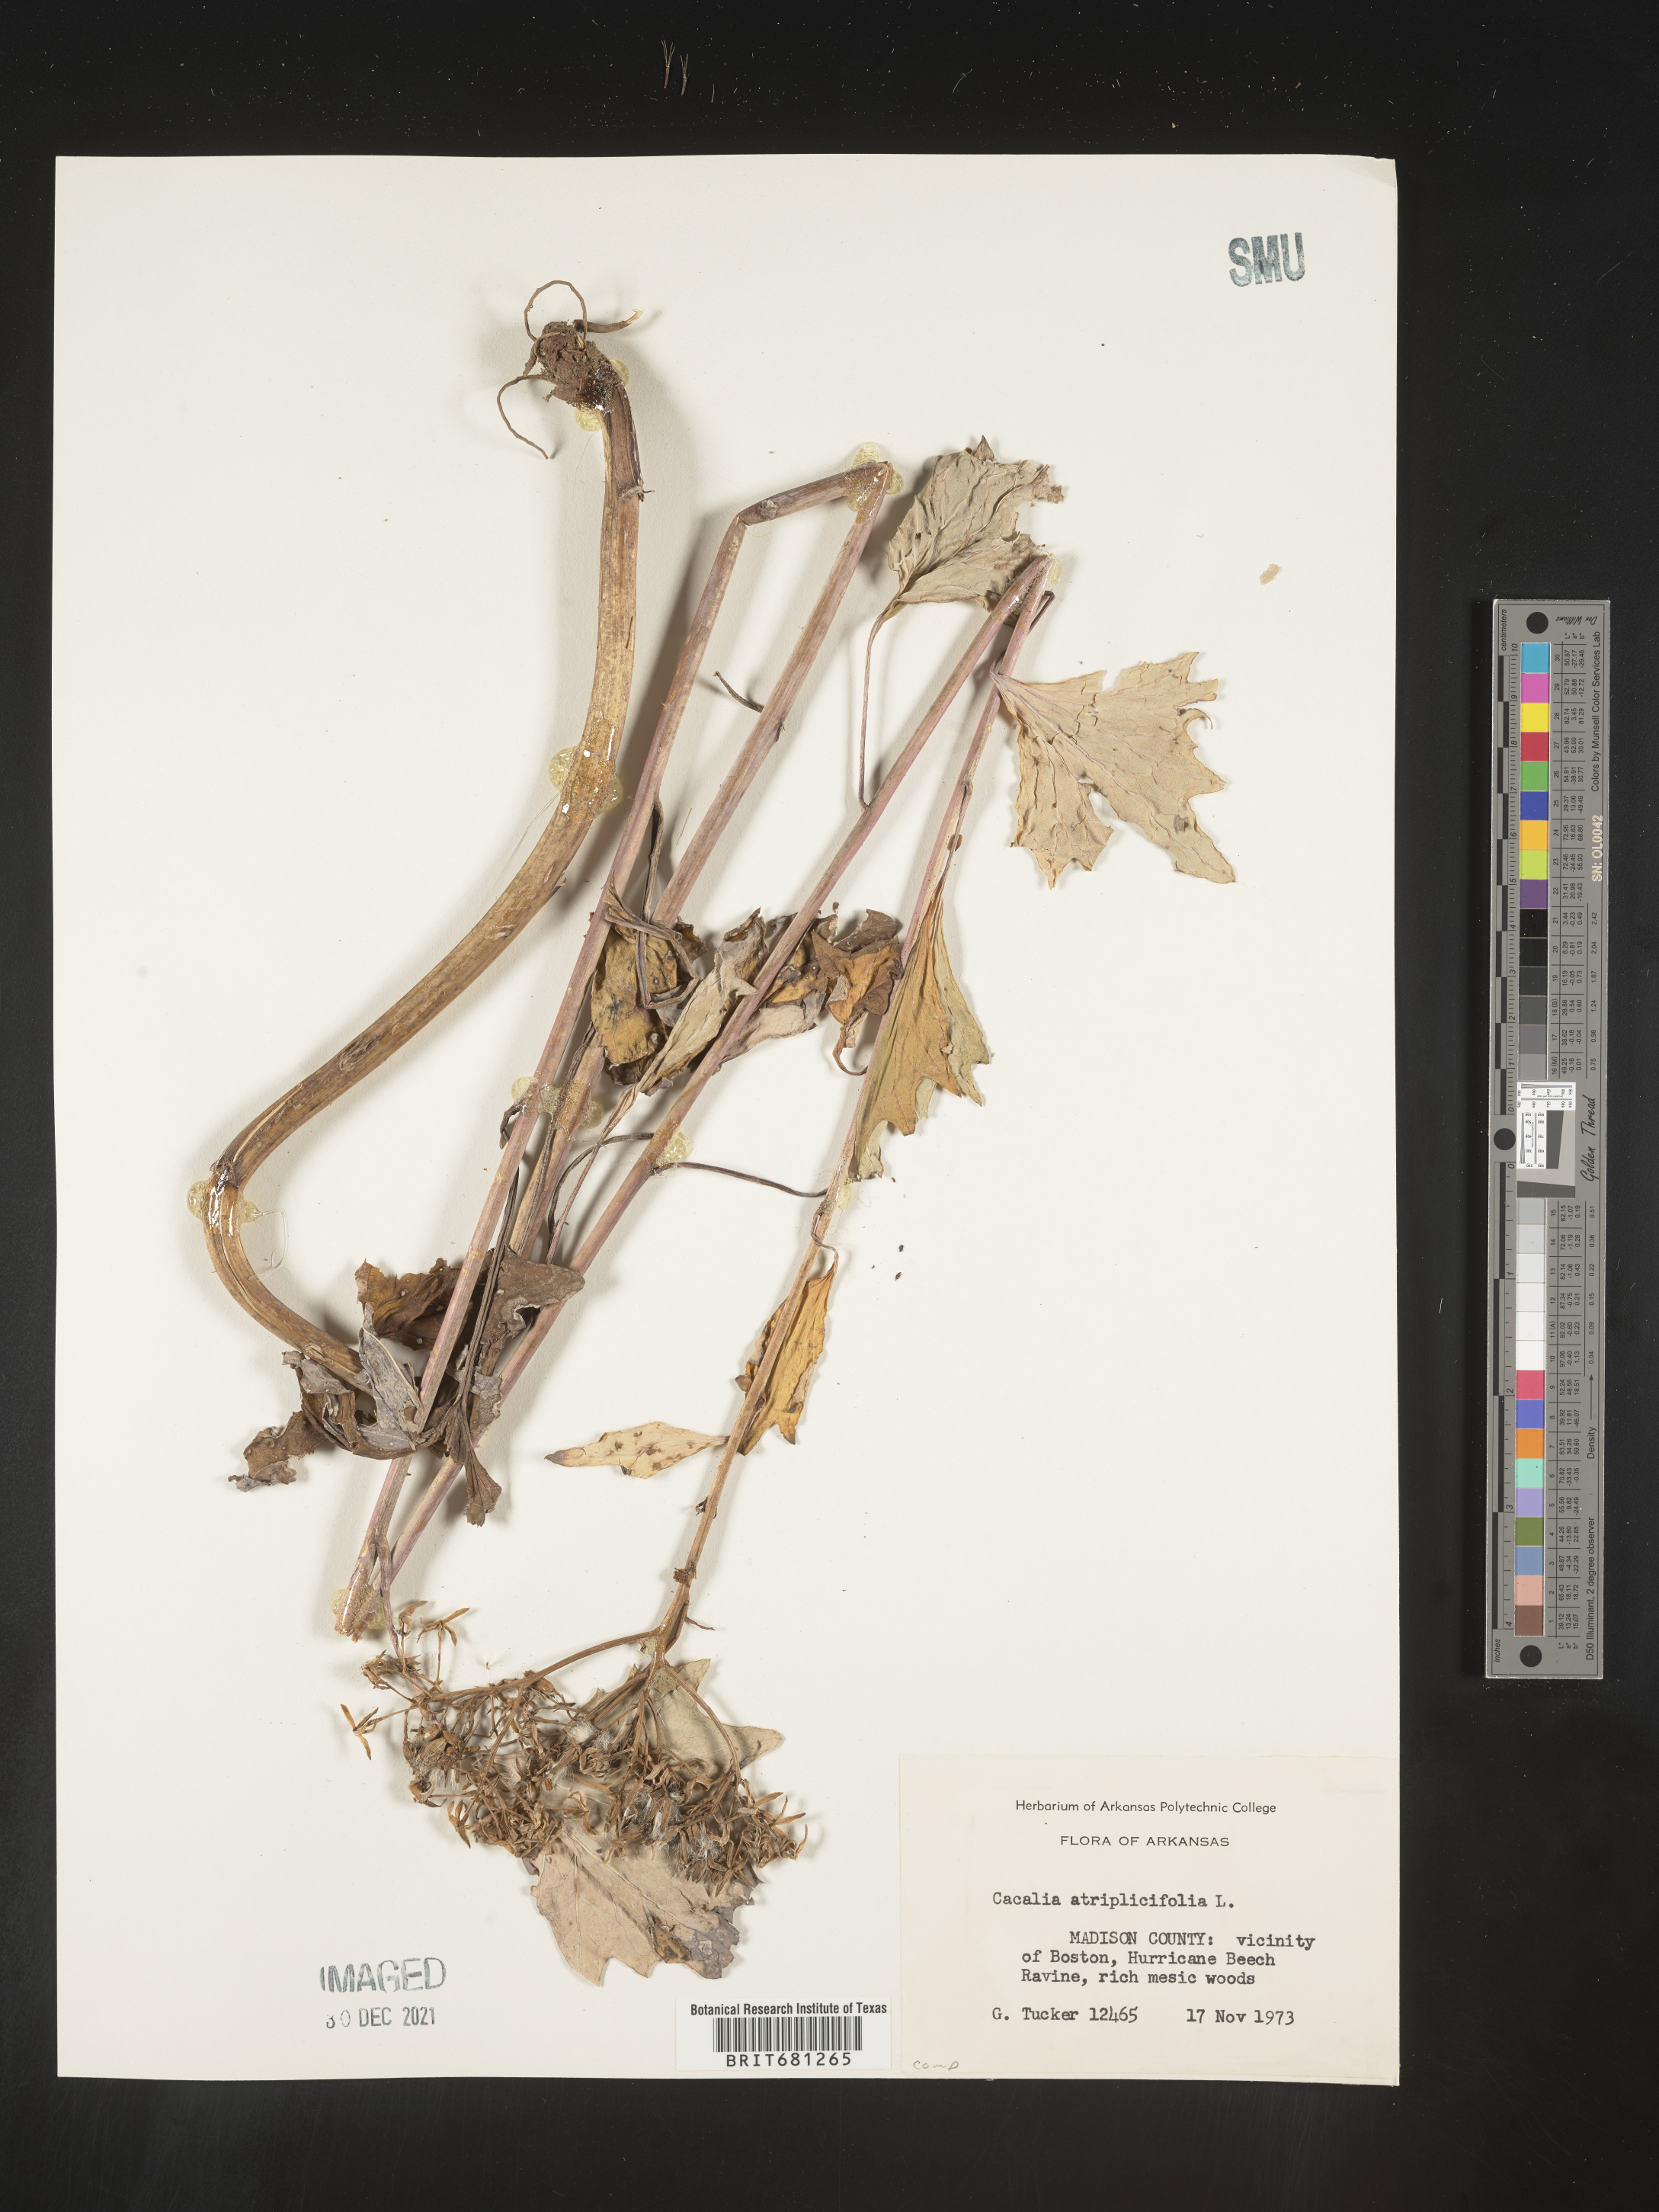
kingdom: Plantae
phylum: Tracheophyta
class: Magnoliopsida
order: Asterales
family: Asteraceae
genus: Arnoglossum
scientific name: Arnoglossum atriplicifolium
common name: Pale indian-plantain
